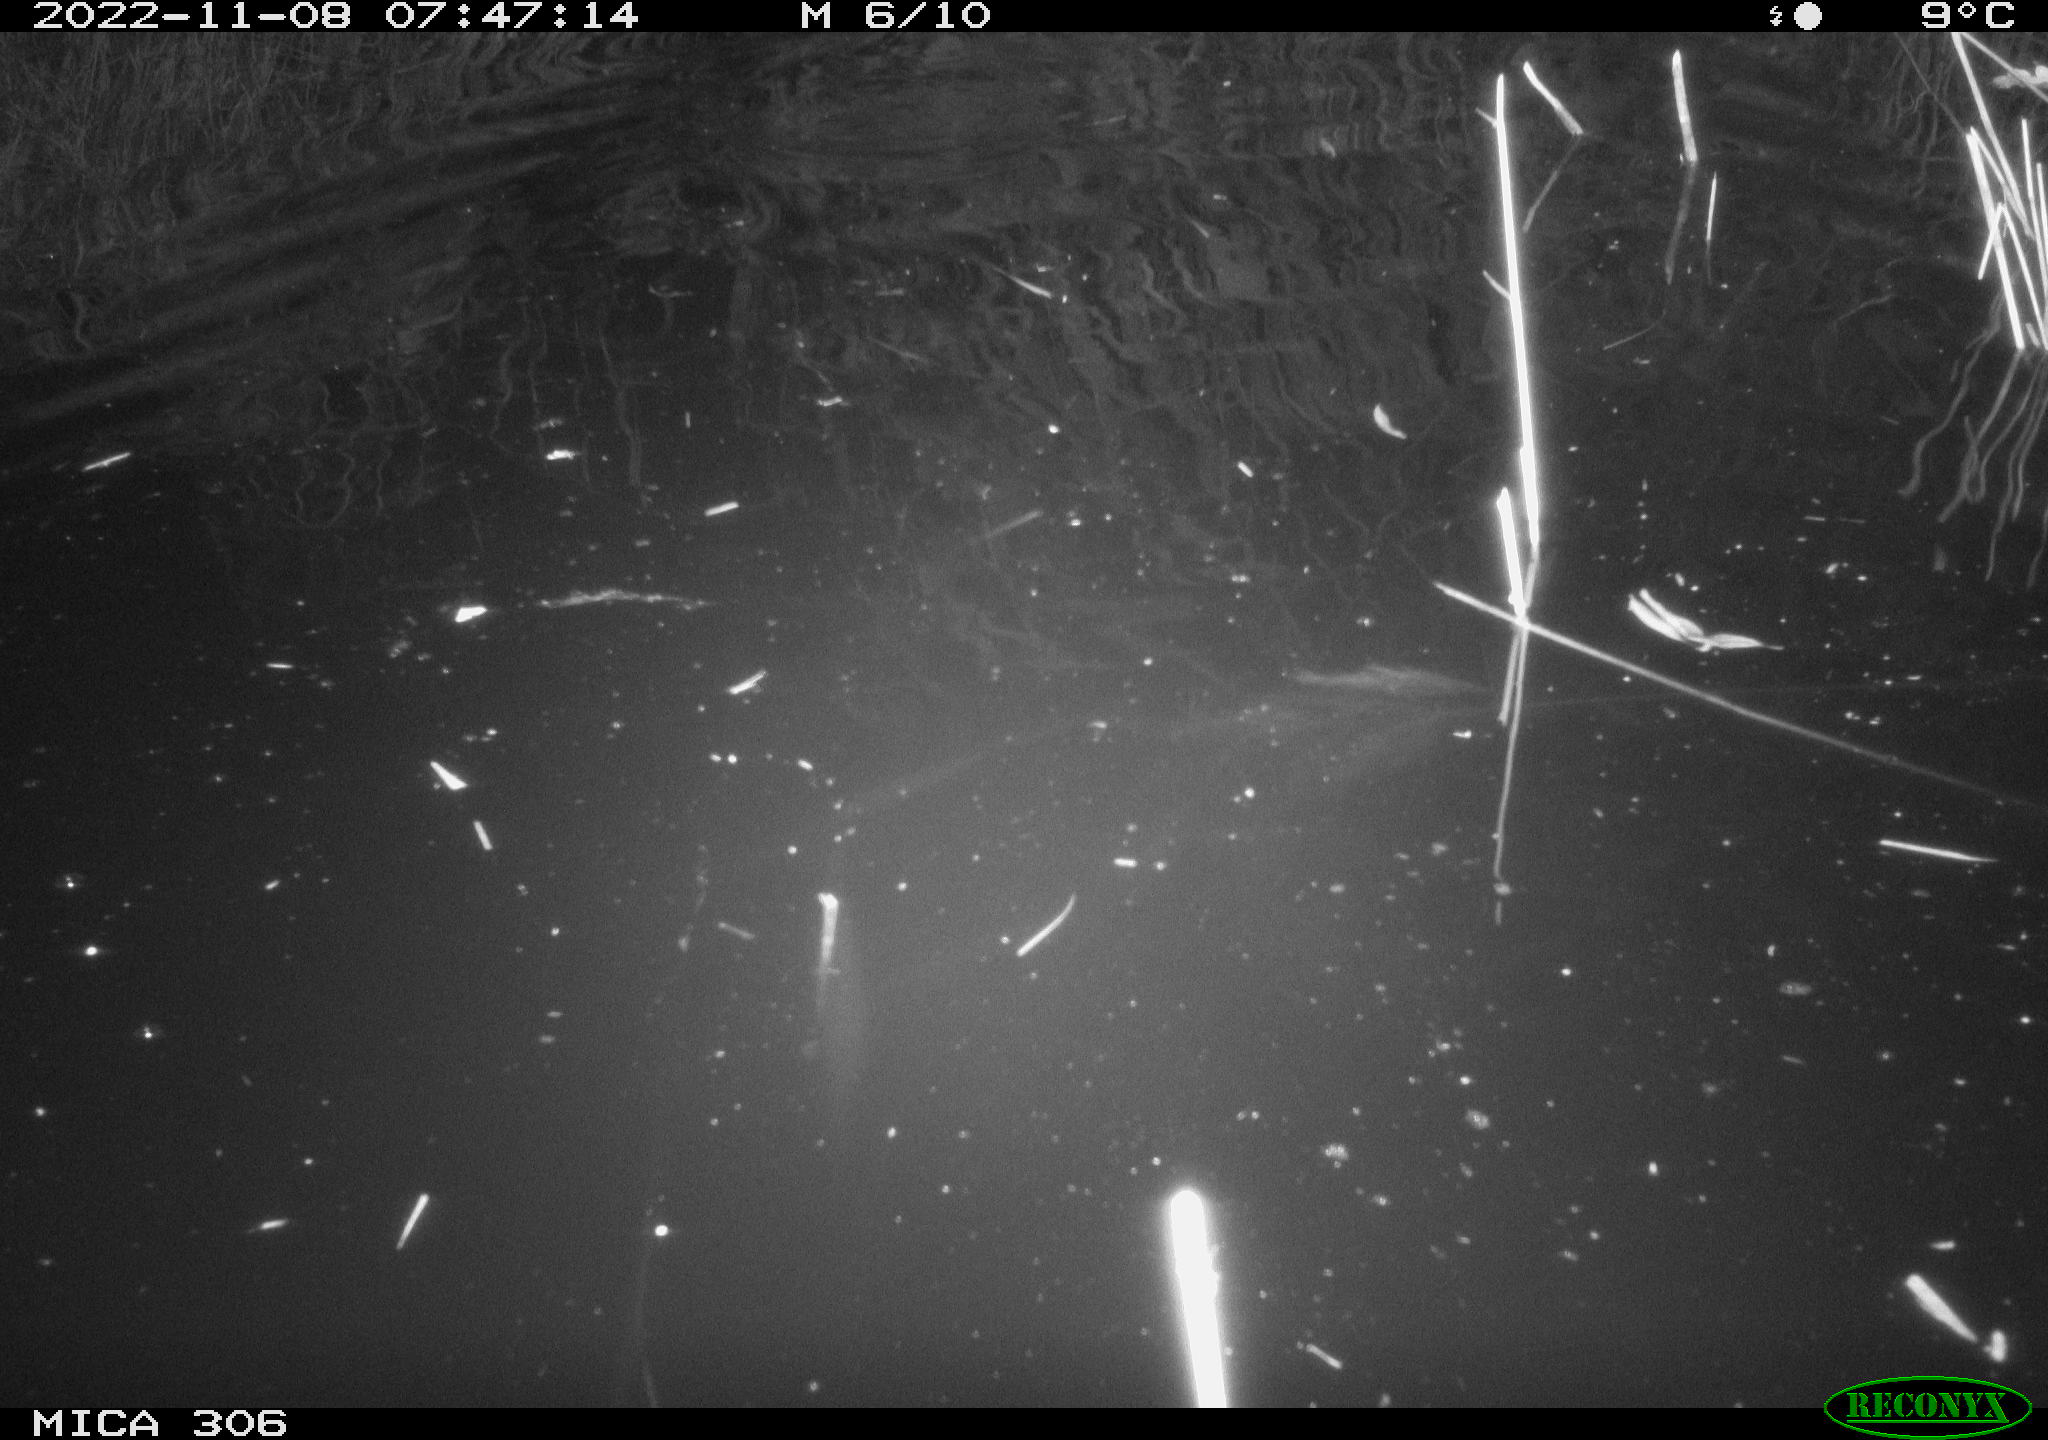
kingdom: Animalia
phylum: Chordata
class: Mammalia
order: Rodentia
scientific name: Rodentia
